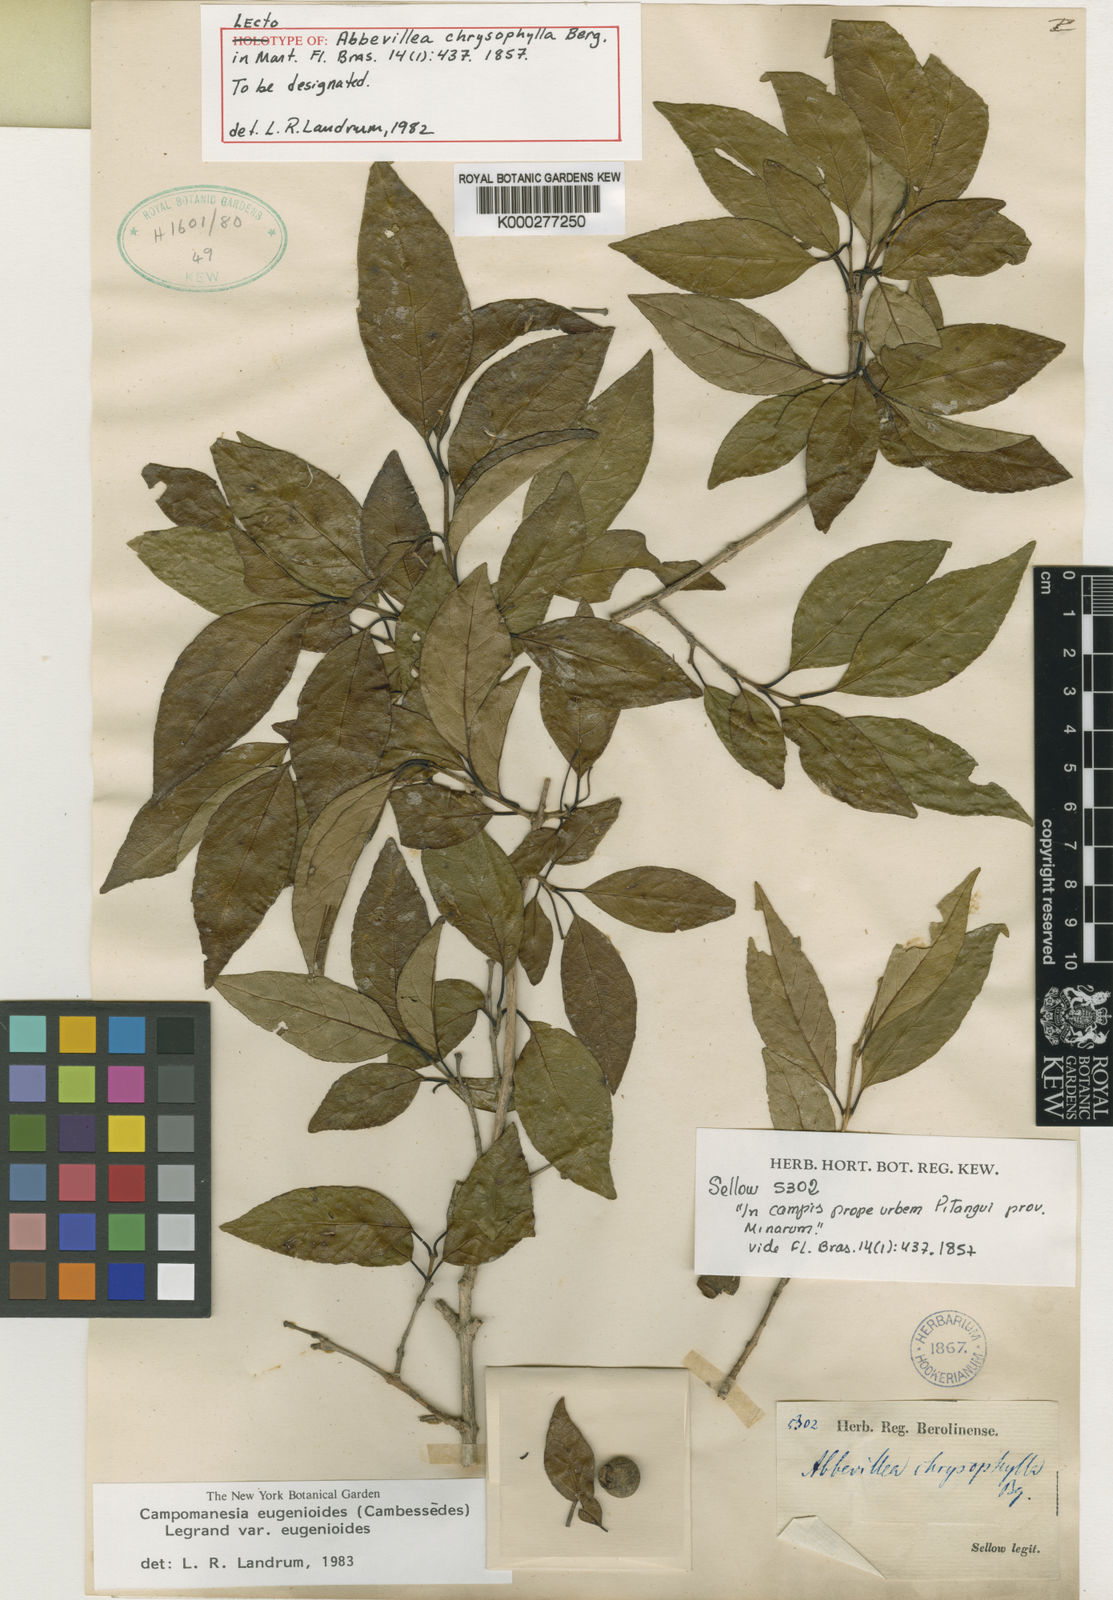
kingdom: Plantae
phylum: Tracheophyta
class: Magnoliopsida
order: Myrtales
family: Myrtaceae
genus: Campomanesia
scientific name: Campomanesia
